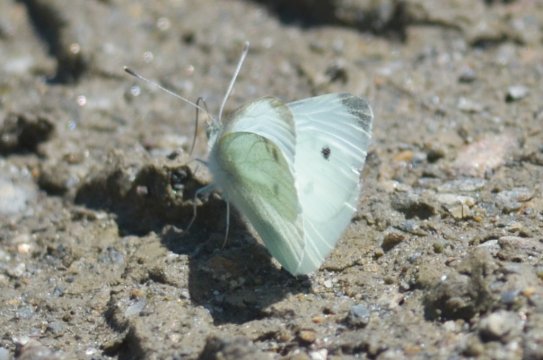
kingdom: Animalia
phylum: Arthropoda
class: Insecta
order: Lepidoptera
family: Pieridae
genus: Pieris
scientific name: Pieris rapae
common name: Cabbage White
